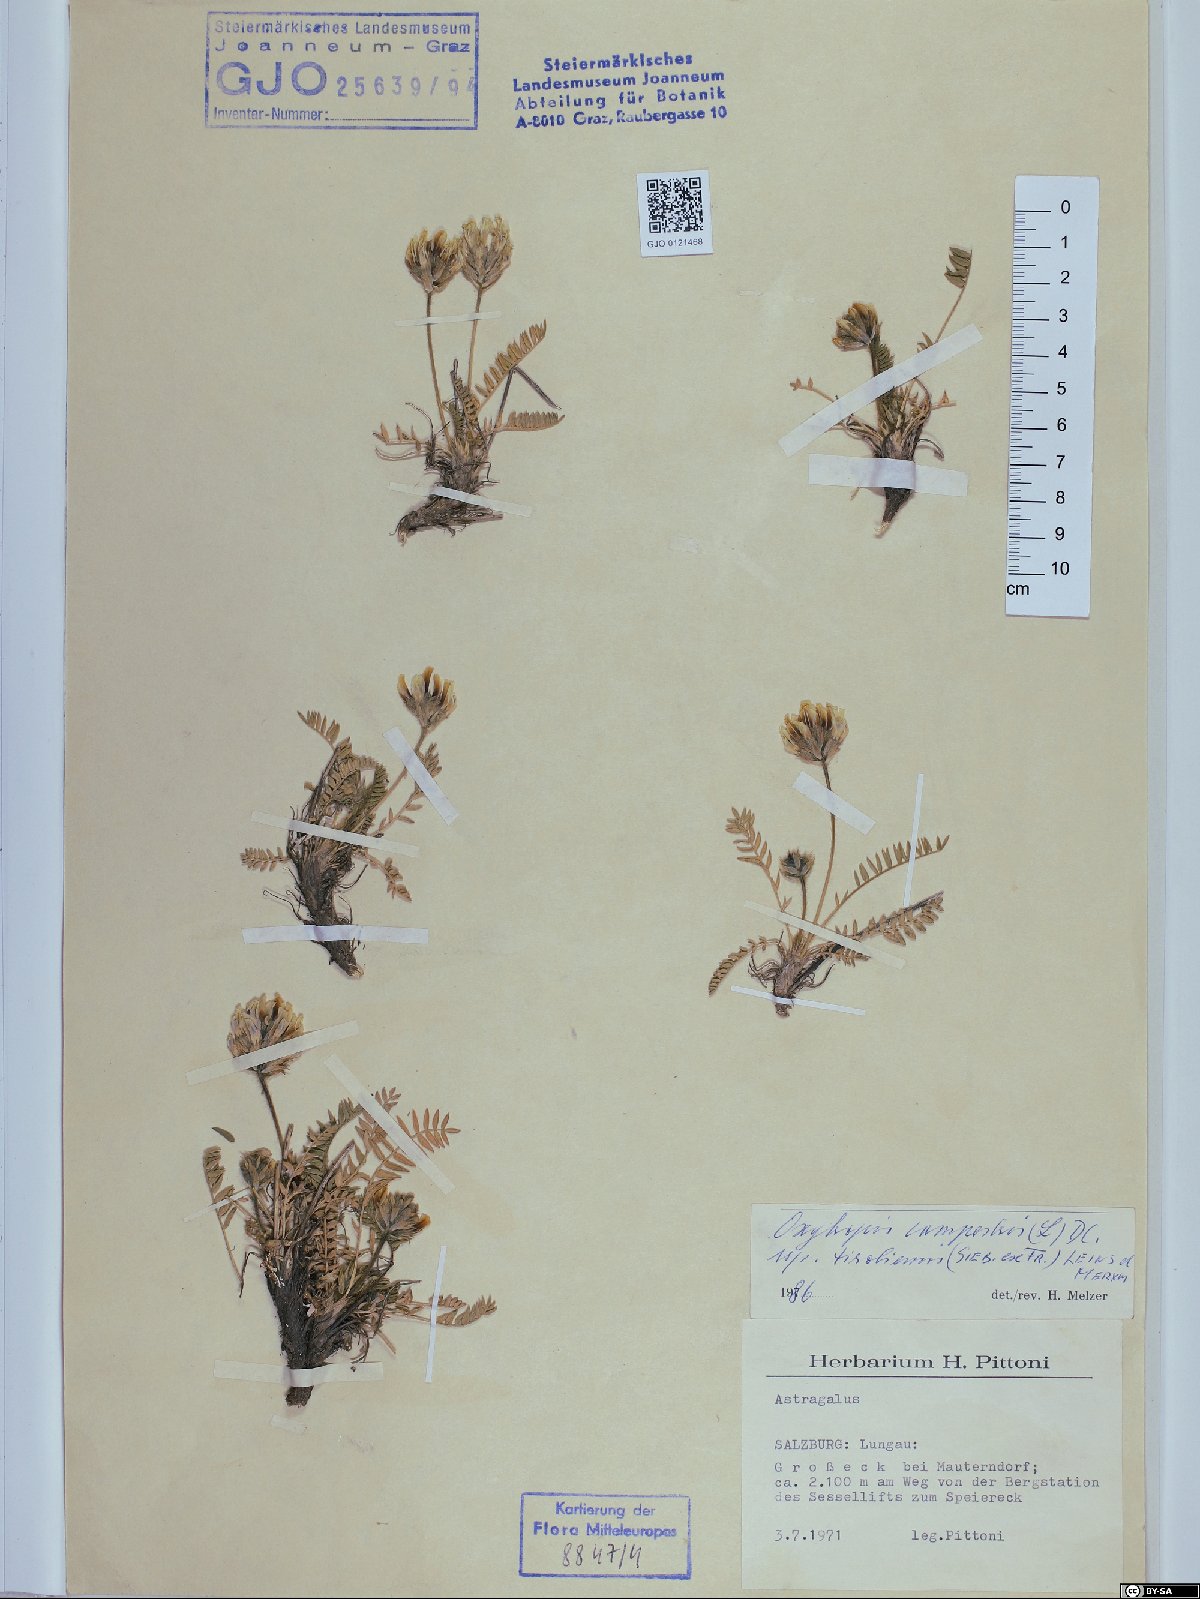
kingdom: Plantae
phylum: Tracheophyta
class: Magnoliopsida
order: Fabales
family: Fabaceae
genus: Oxytropis
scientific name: Oxytropis campestris
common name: Field locoweed
